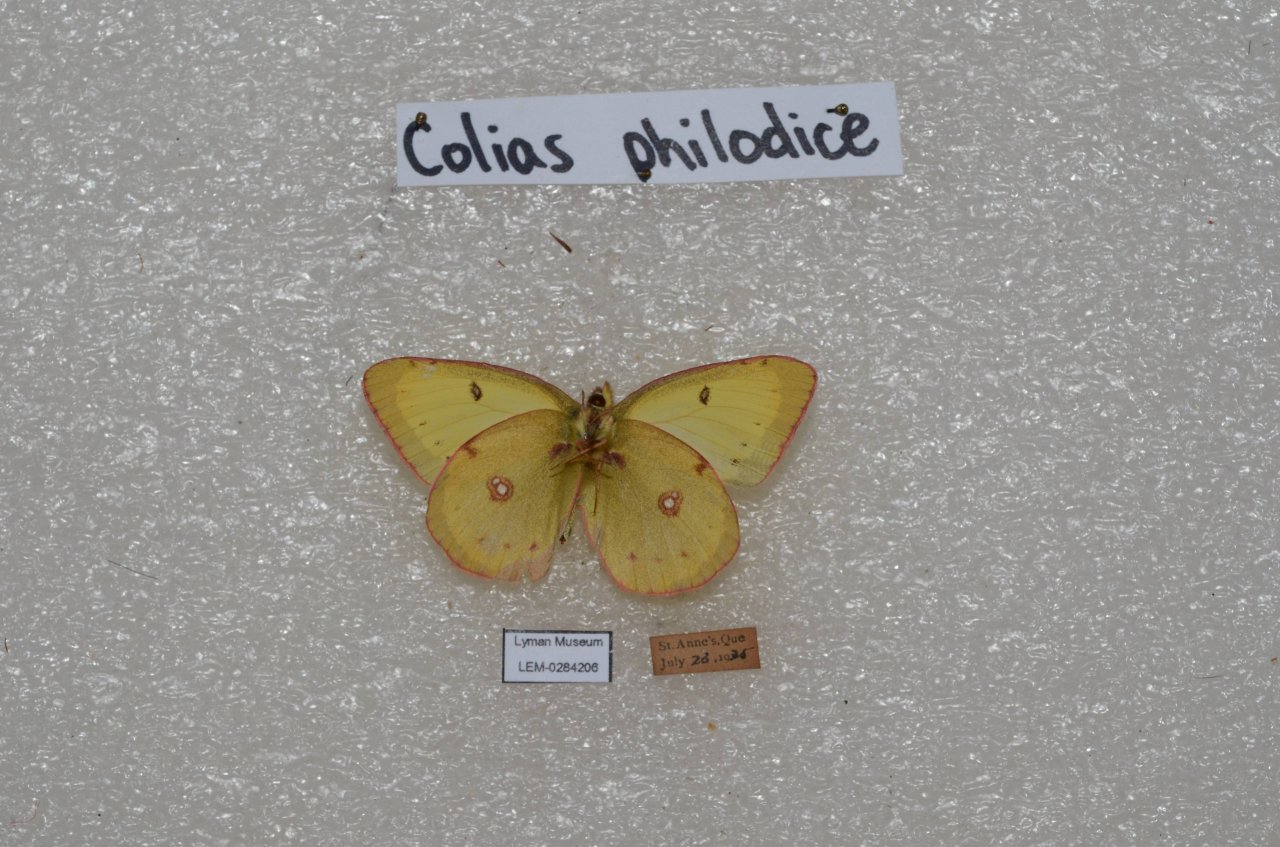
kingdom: Animalia
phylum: Arthropoda
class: Insecta
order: Lepidoptera
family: Pieridae
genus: Colias
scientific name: Colias philodice
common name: Clouded Sulphur
